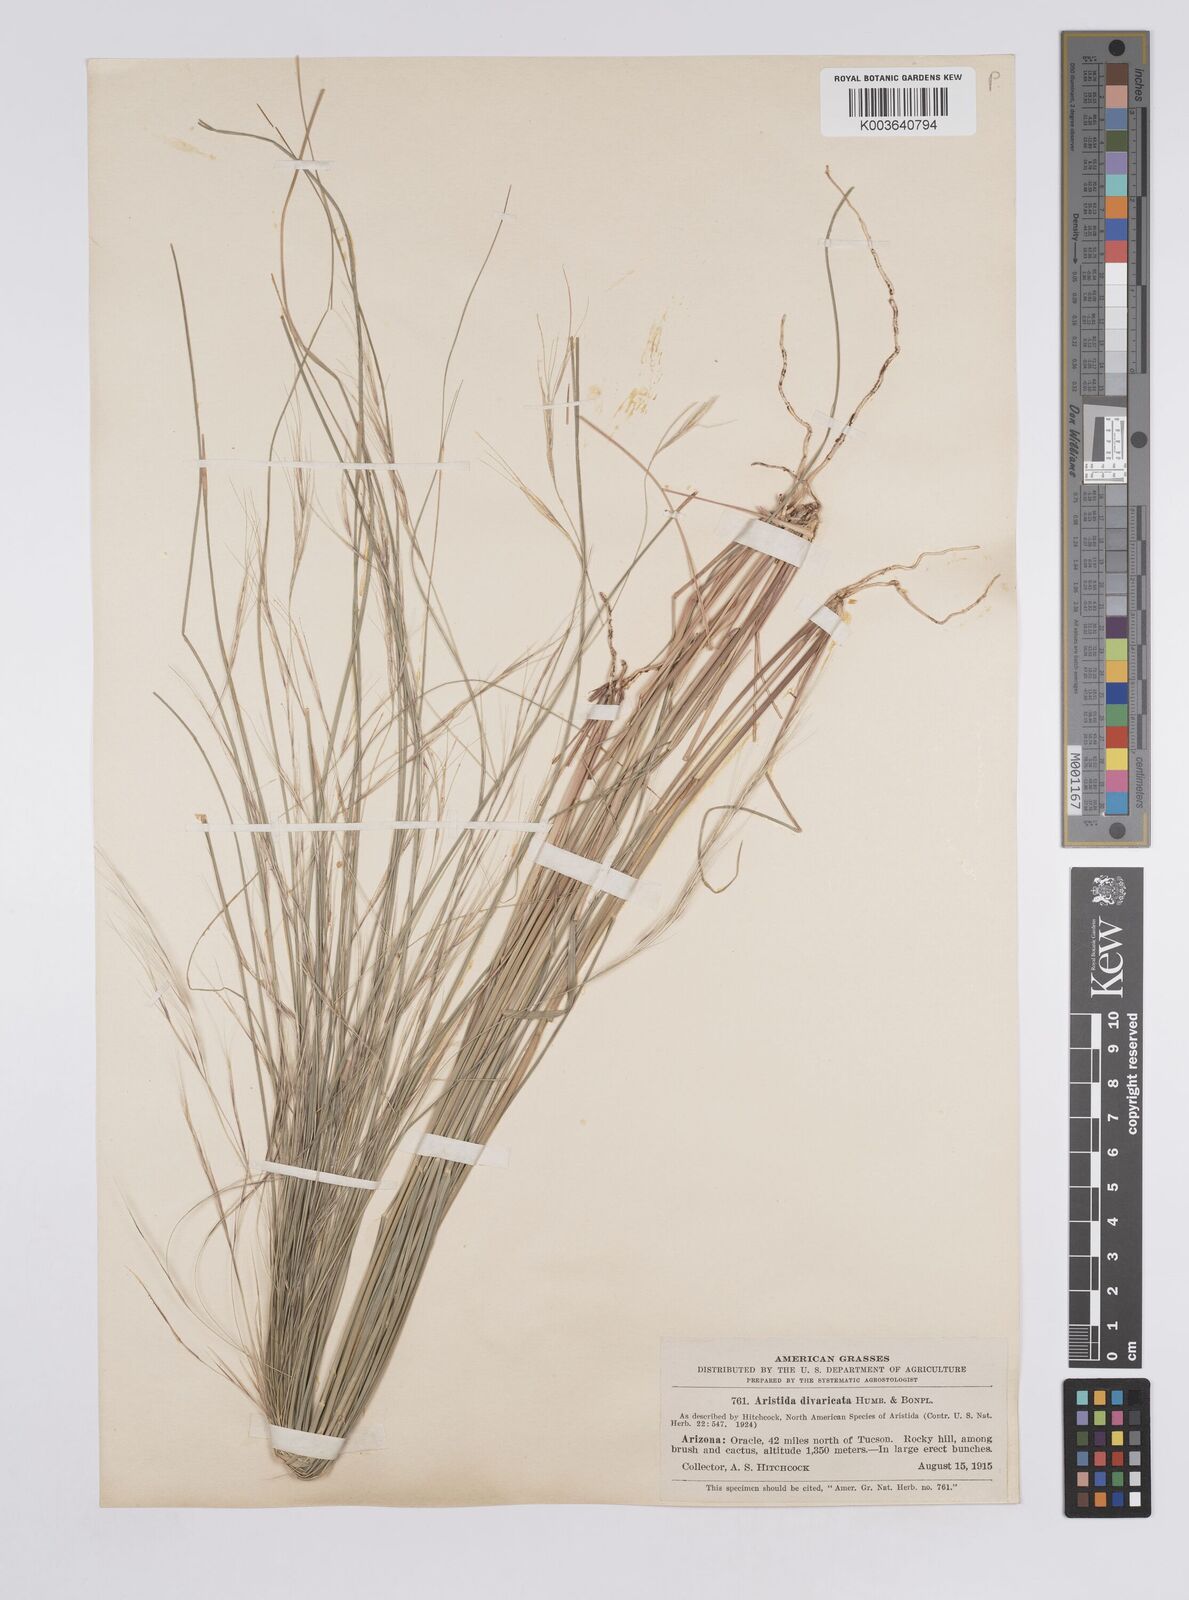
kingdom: Plantae
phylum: Tracheophyta
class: Liliopsida
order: Poales
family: Poaceae
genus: Aristida
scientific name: Aristida laxa
